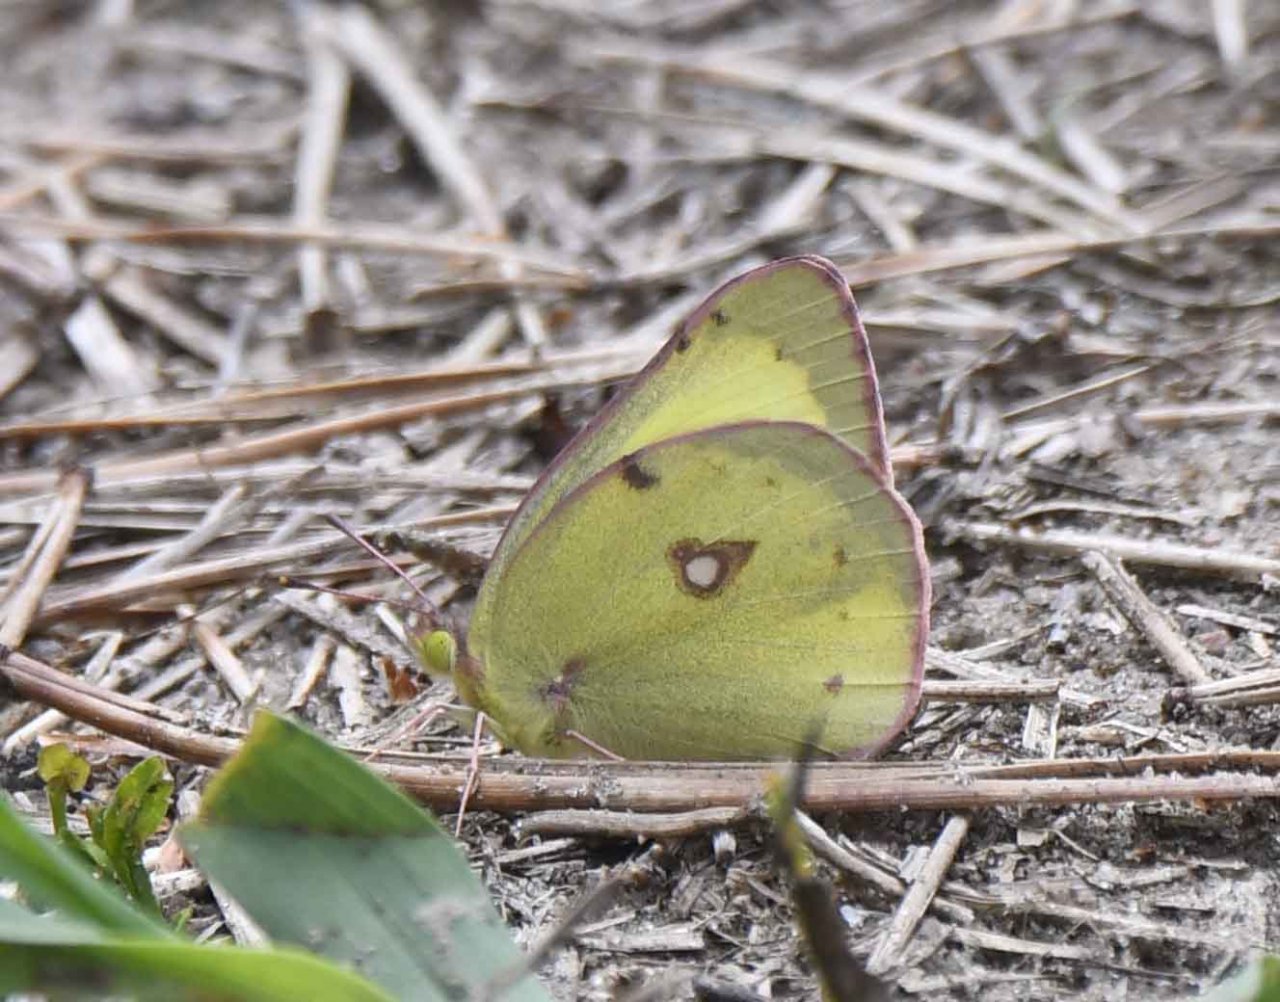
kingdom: Animalia
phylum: Arthropoda
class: Insecta
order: Lepidoptera
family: Pieridae
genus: Colias
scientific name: Colias philodice
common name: Clouded Sulphur
